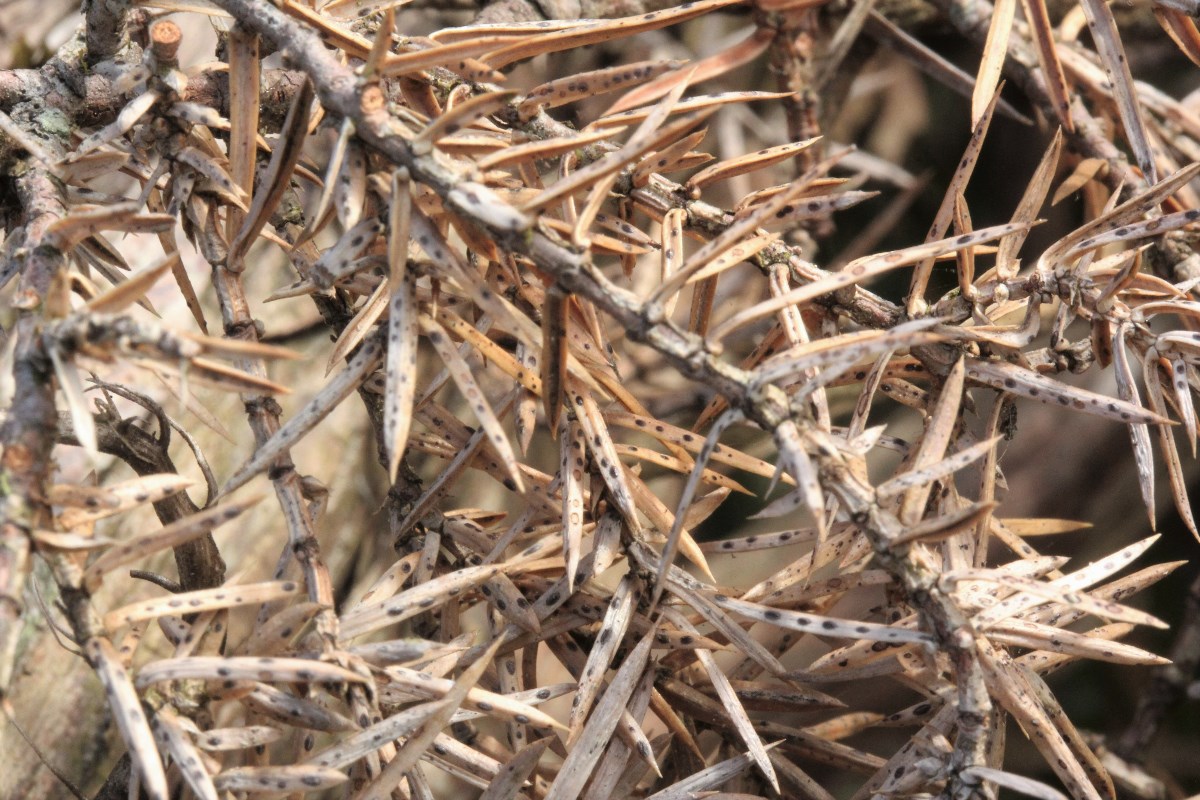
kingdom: Fungi
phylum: Ascomycota
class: Leotiomycetes
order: Rhytismatales
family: Rhytismataceae
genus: Lophodermium
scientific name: Lophodermium juniperinum
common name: ene-fureplet
